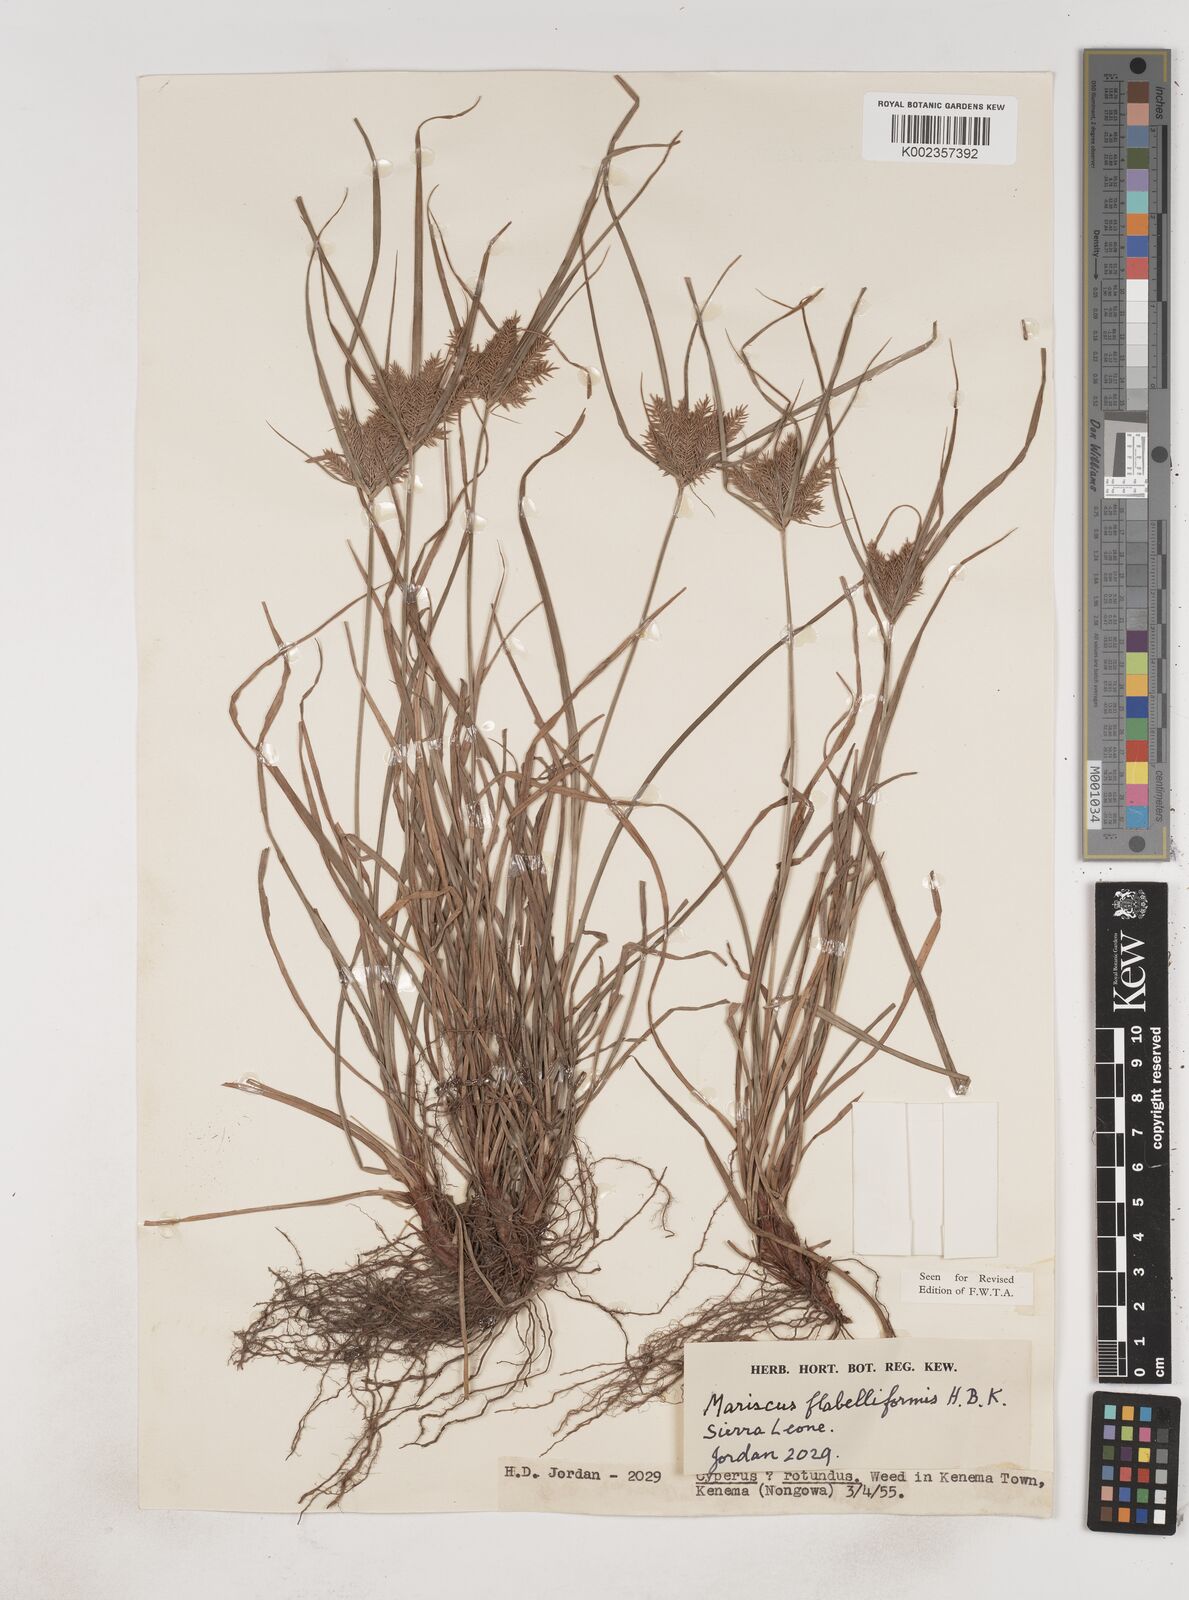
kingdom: Plantae
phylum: Tracheophyta
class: Liliopsida
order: Poales
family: Cyperaceae
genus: Cyperus
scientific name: Cyperus tenuis
